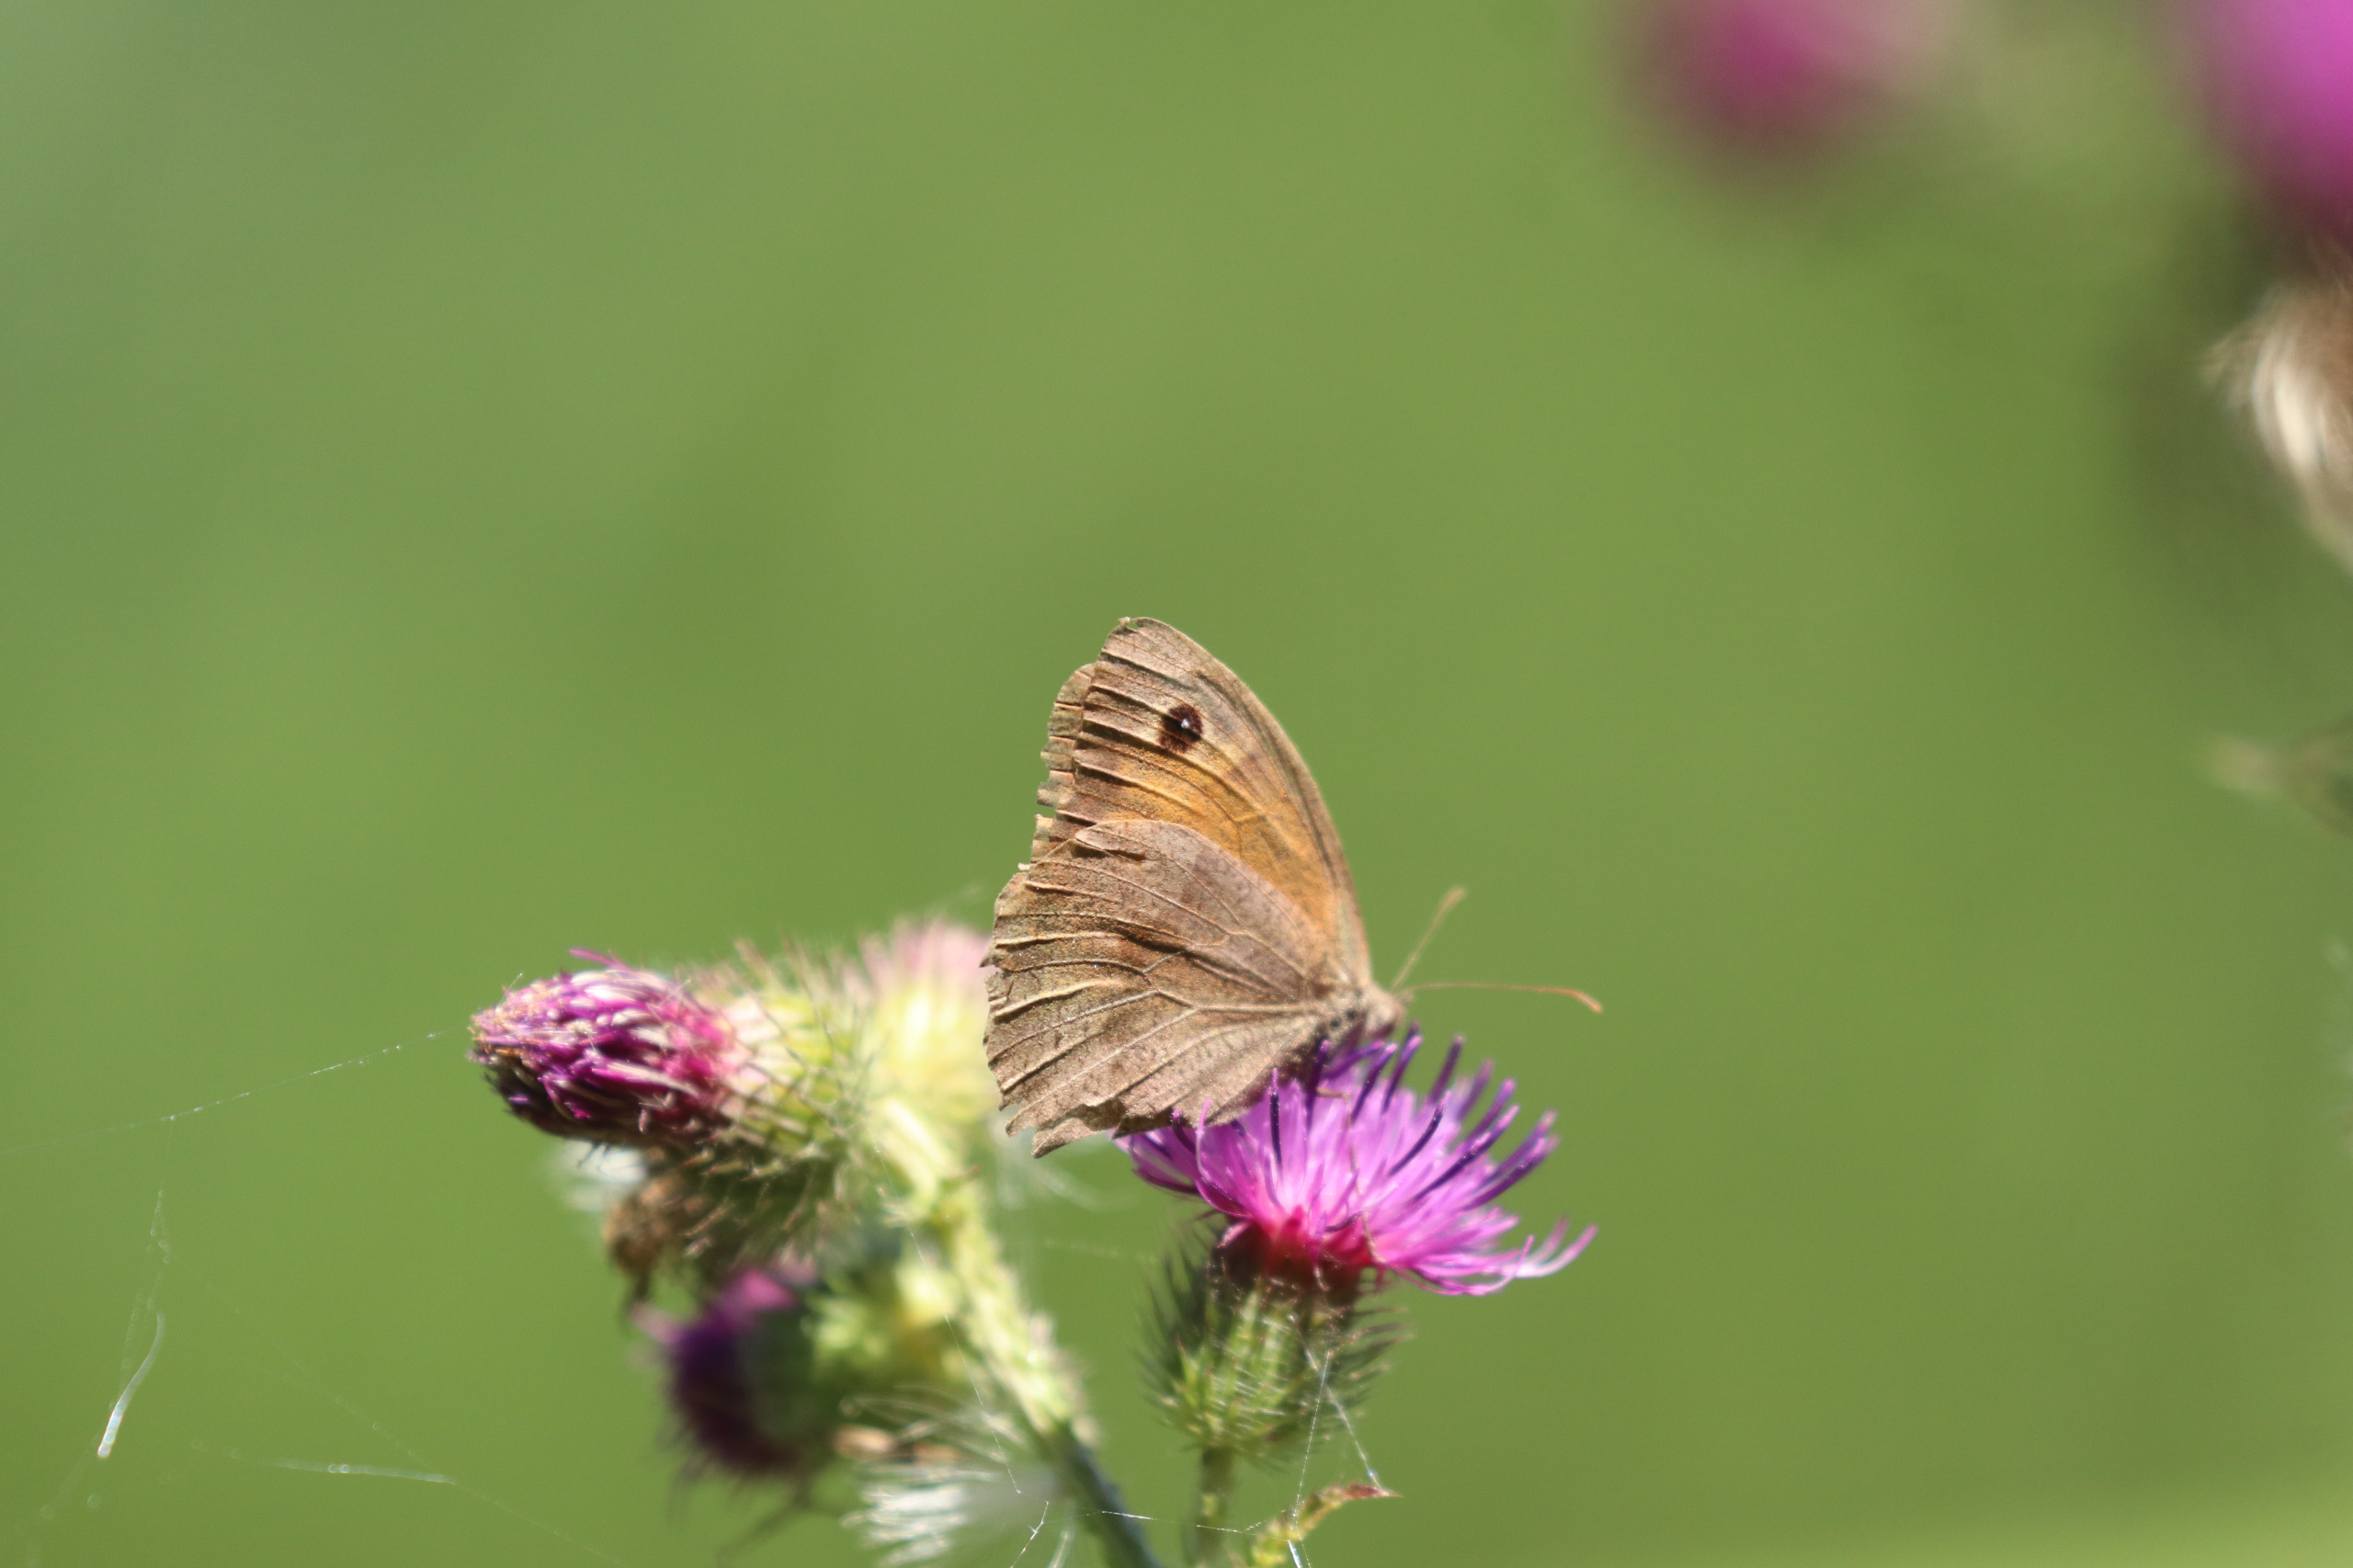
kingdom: Animalia
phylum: Arthropoda
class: Insecta
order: Lepidoptera
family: Nymphalidae
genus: Maniola
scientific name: Maniola jurtina
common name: Græsrandøje
